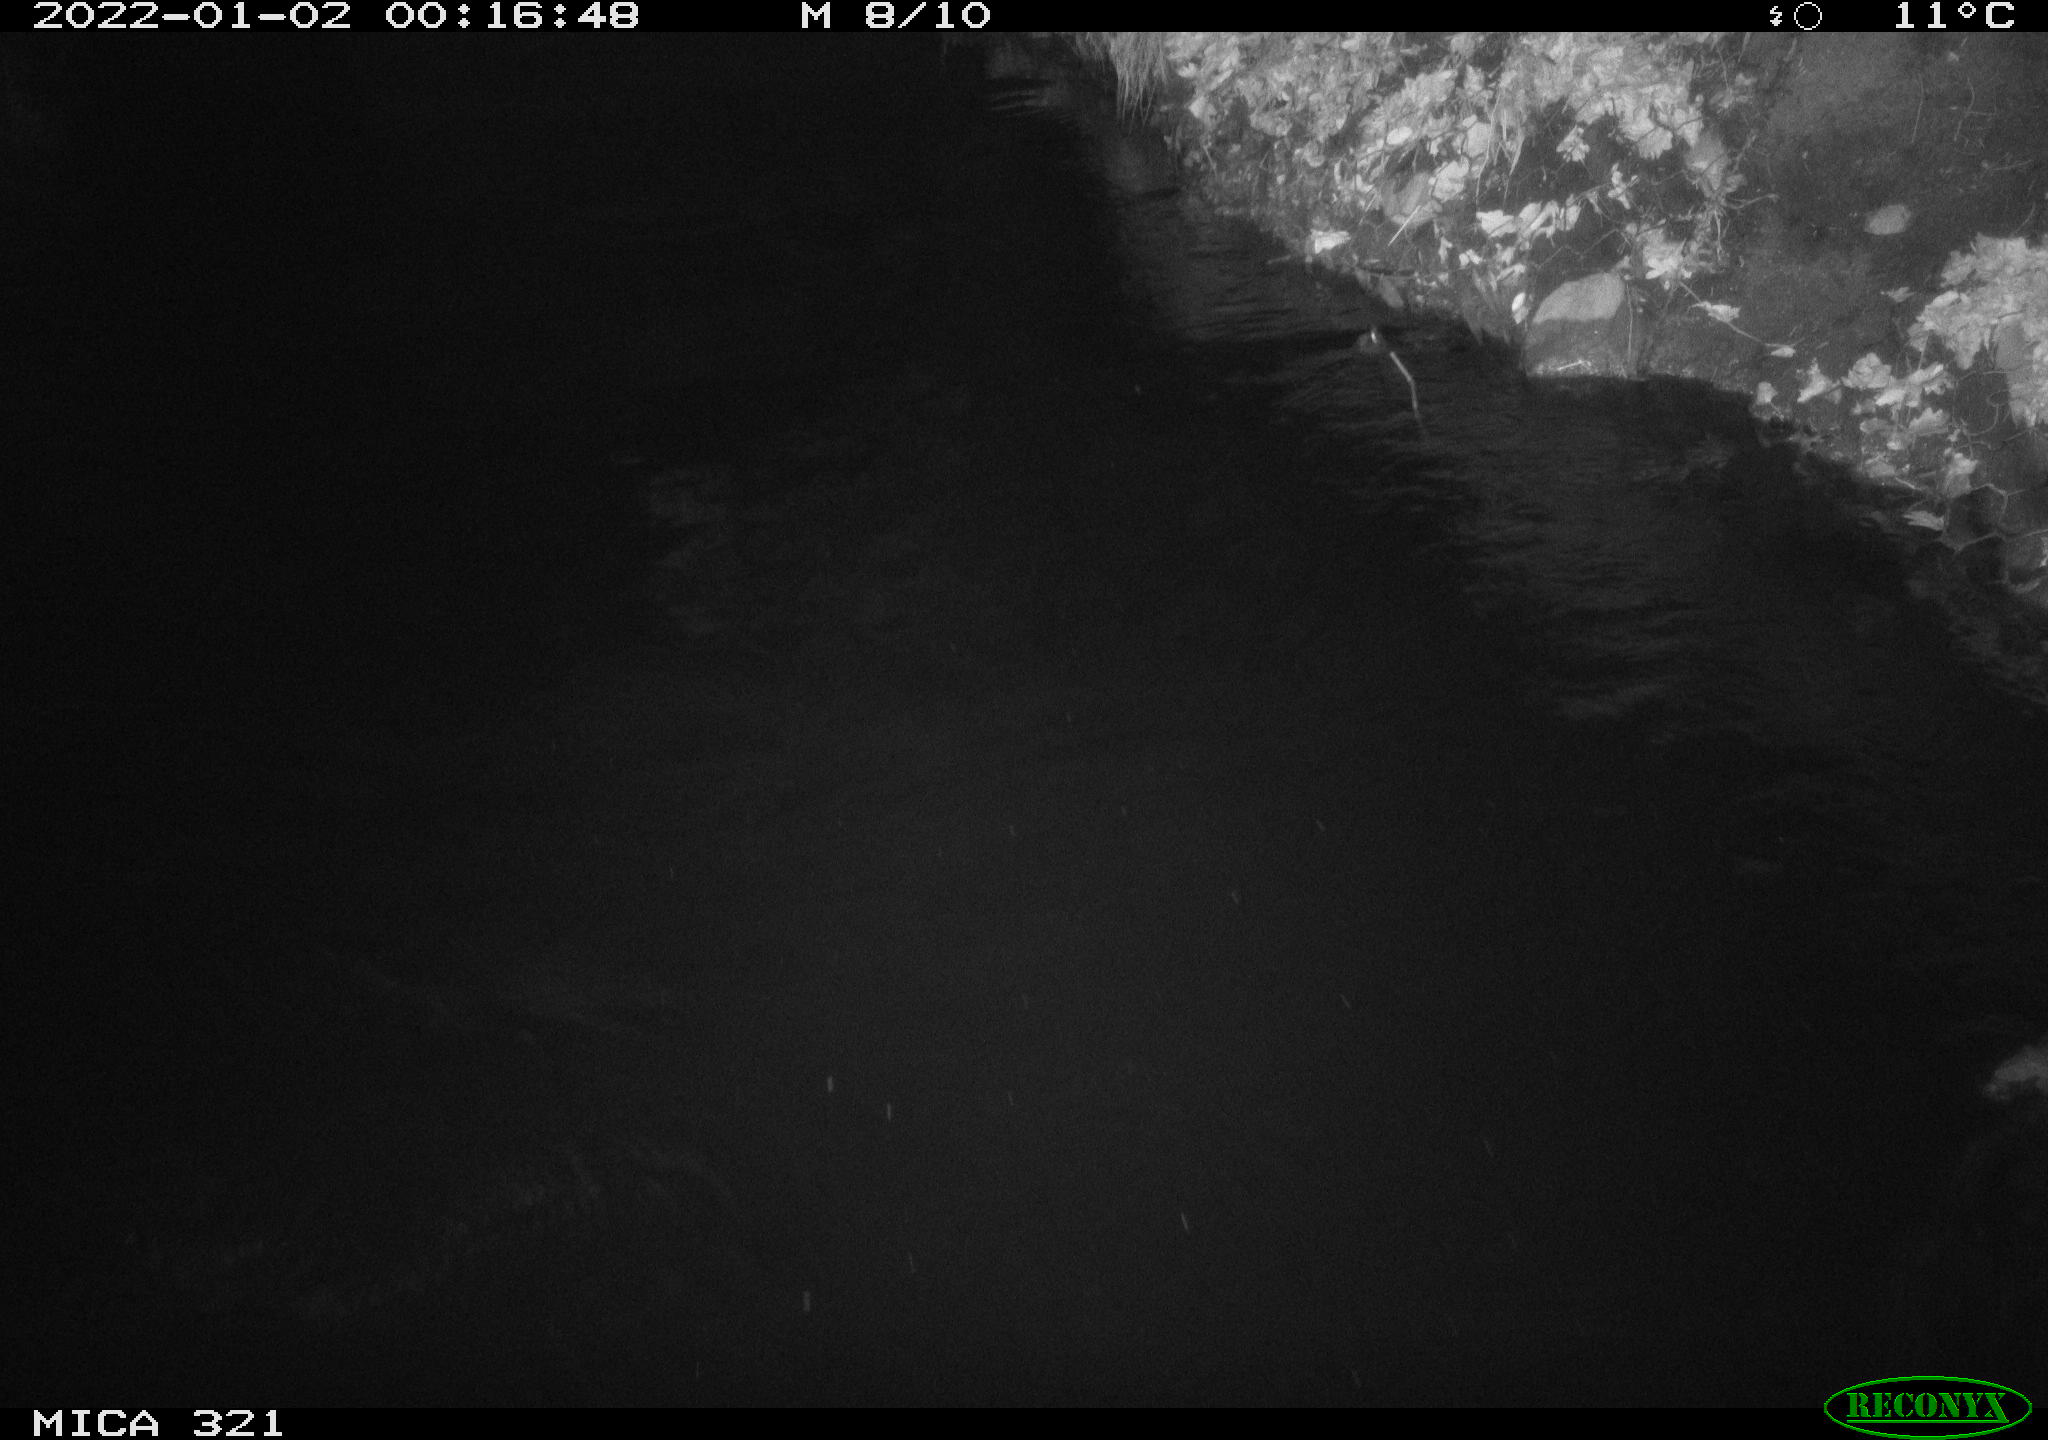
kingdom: Animalia
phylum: Chordata
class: Aves
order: Anseriformes
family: Anatidae
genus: Anas
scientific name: Anas
